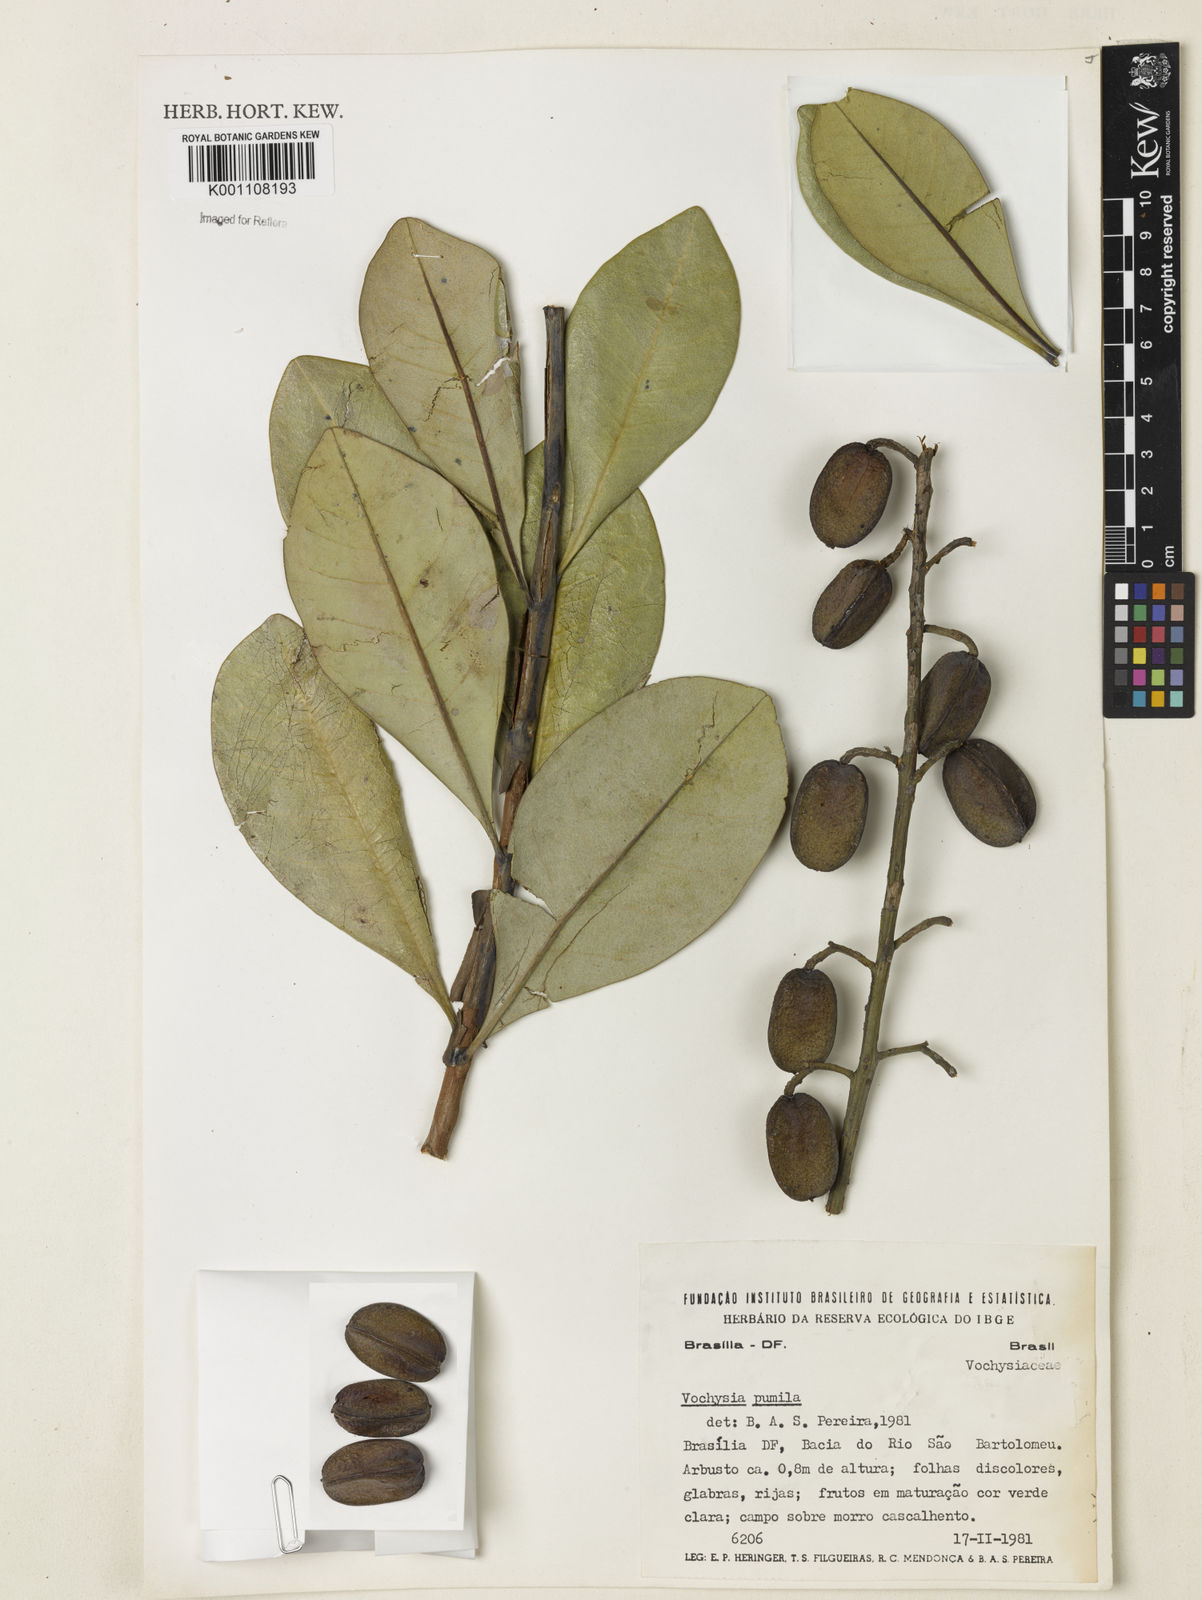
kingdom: Plantae
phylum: Tracheophyta
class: Magnoliopsida
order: Myrtales
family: Vochysiaceae
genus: Vochysia
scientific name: Vochysia pumila
